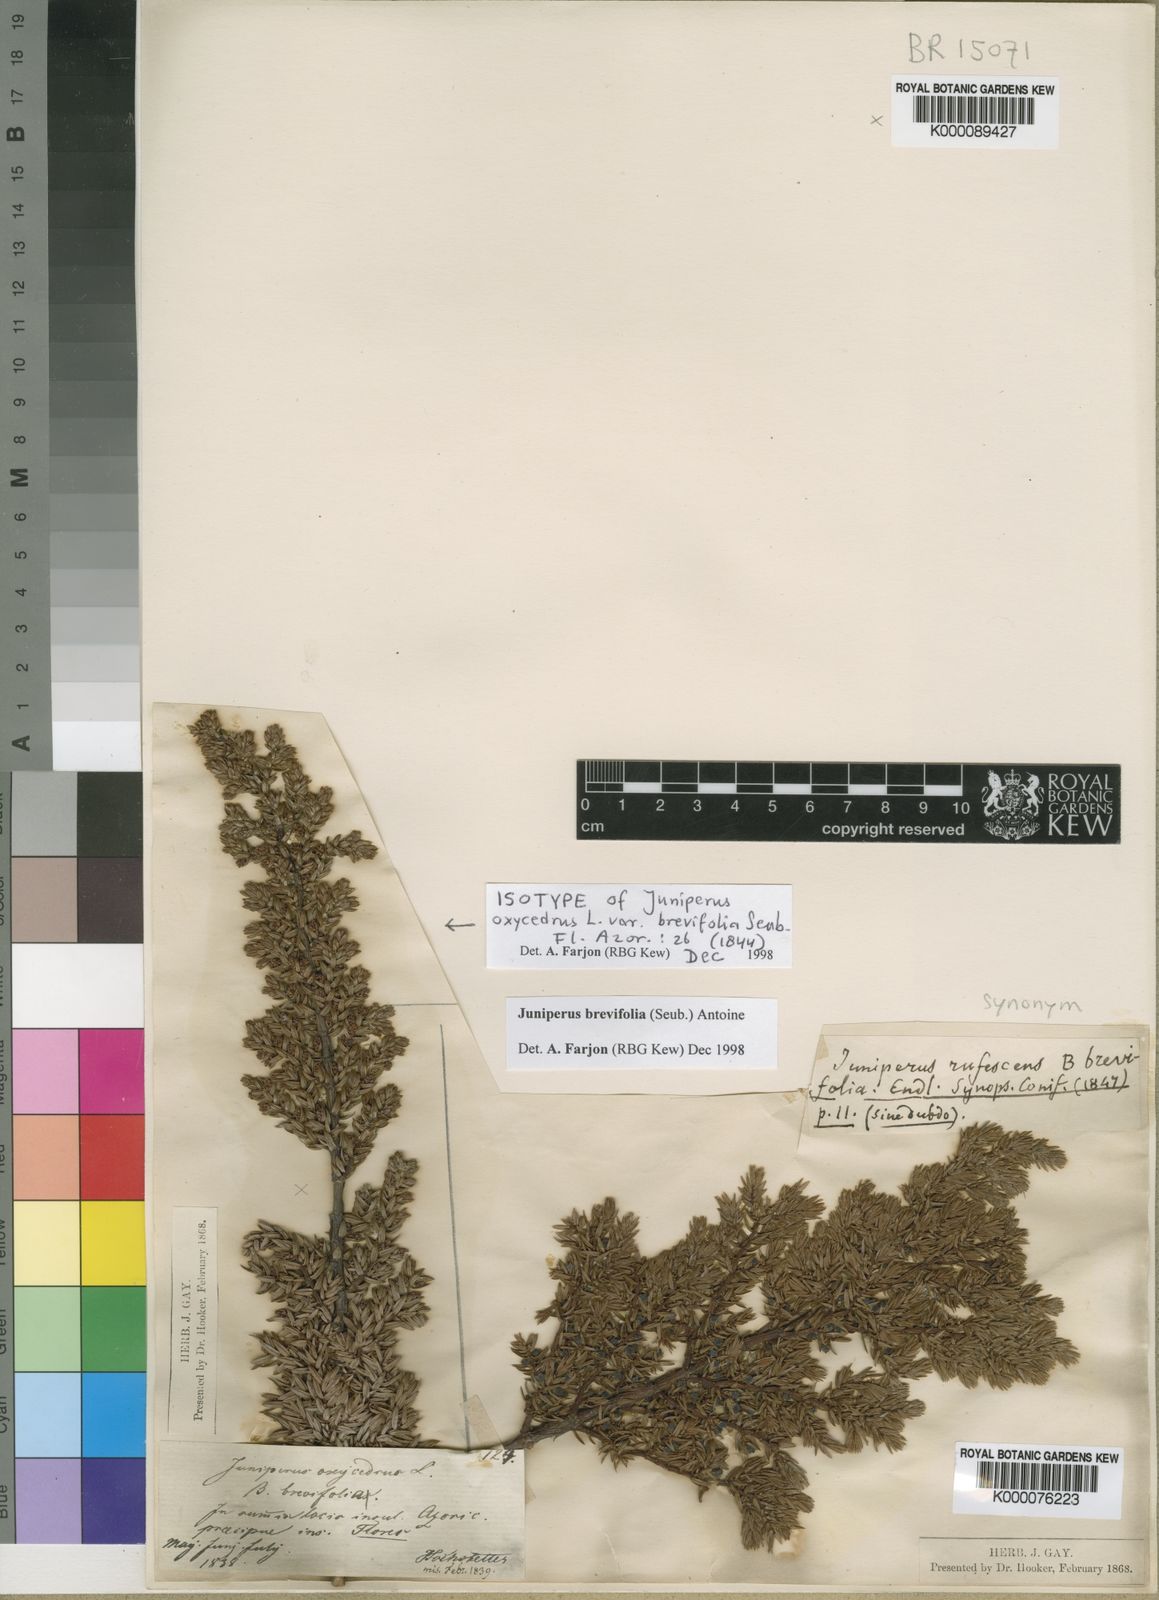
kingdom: Plantae
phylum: Tracheophyta
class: Pinopsida
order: Pinales
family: Cupressaceae
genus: Juniperus
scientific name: Juniperus brevifolia
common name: Azores juniper
